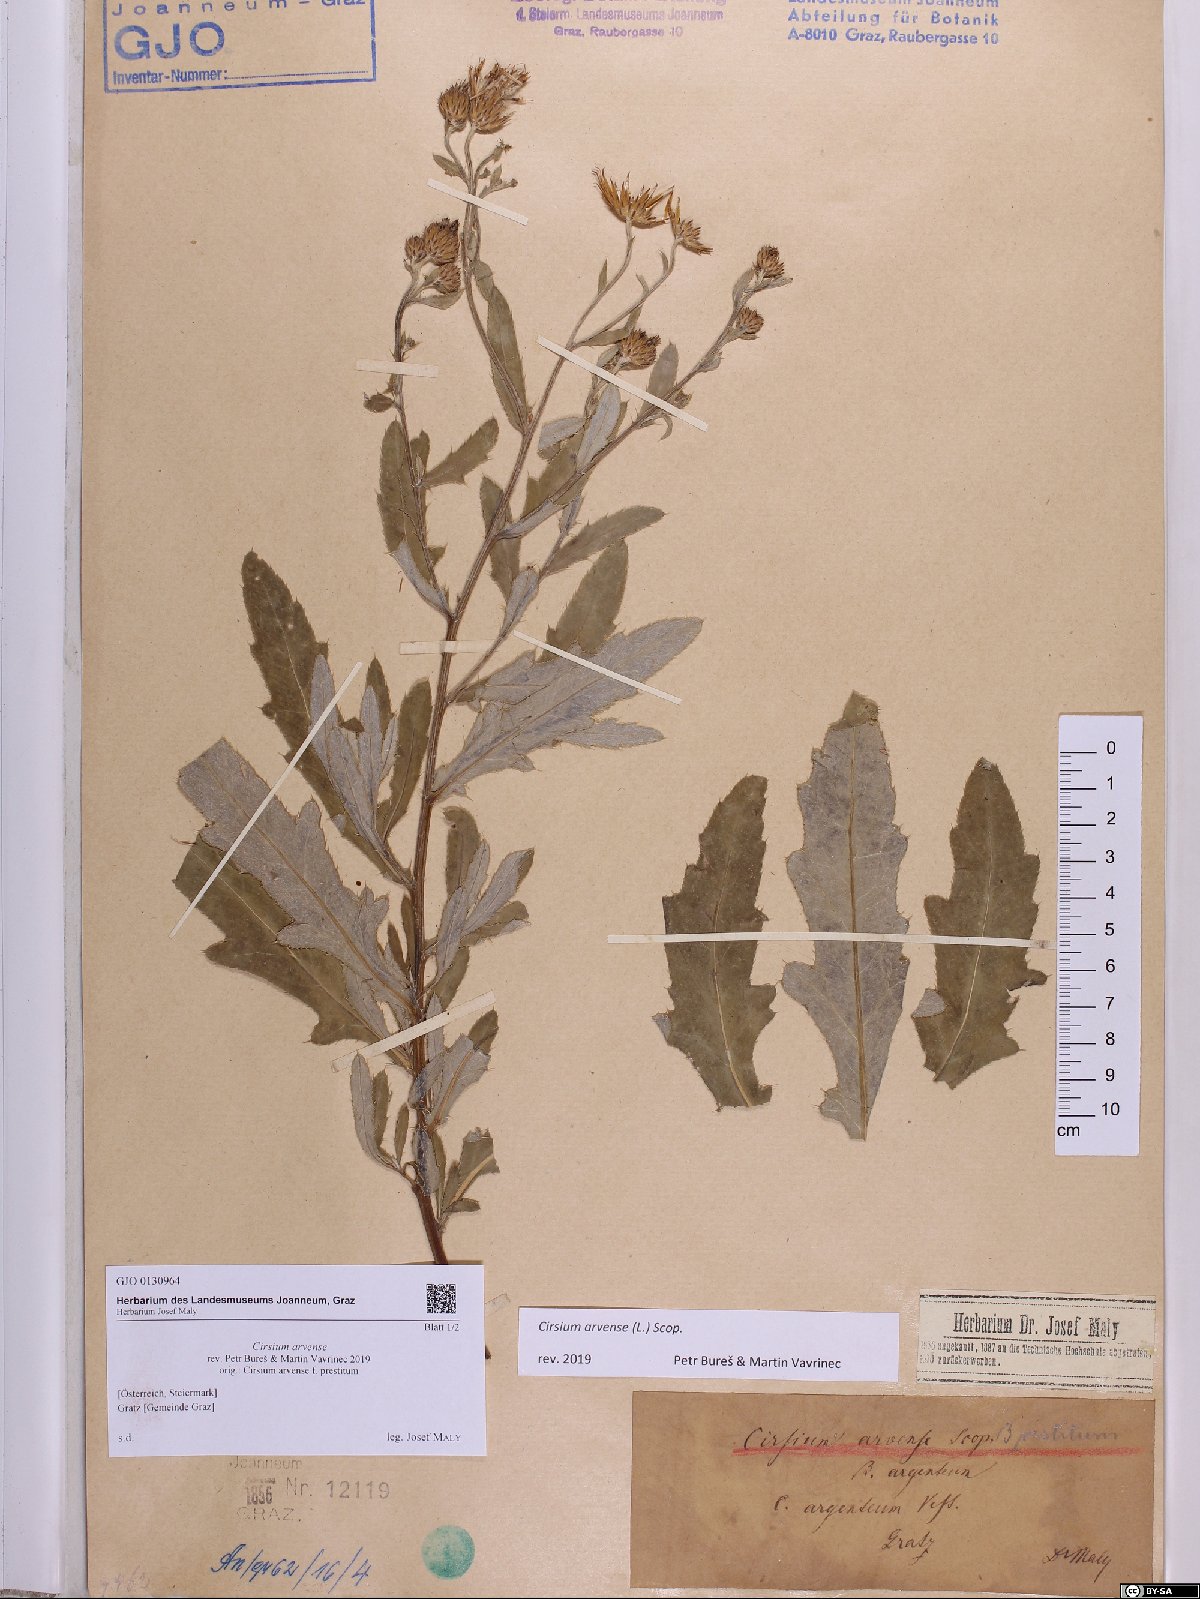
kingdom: Plantae
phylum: Tracheophyta
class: Magnoliopsida
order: Asterales
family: Asteraceae
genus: Cirsium
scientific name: Cirsium arvense
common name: Creeping thistle
